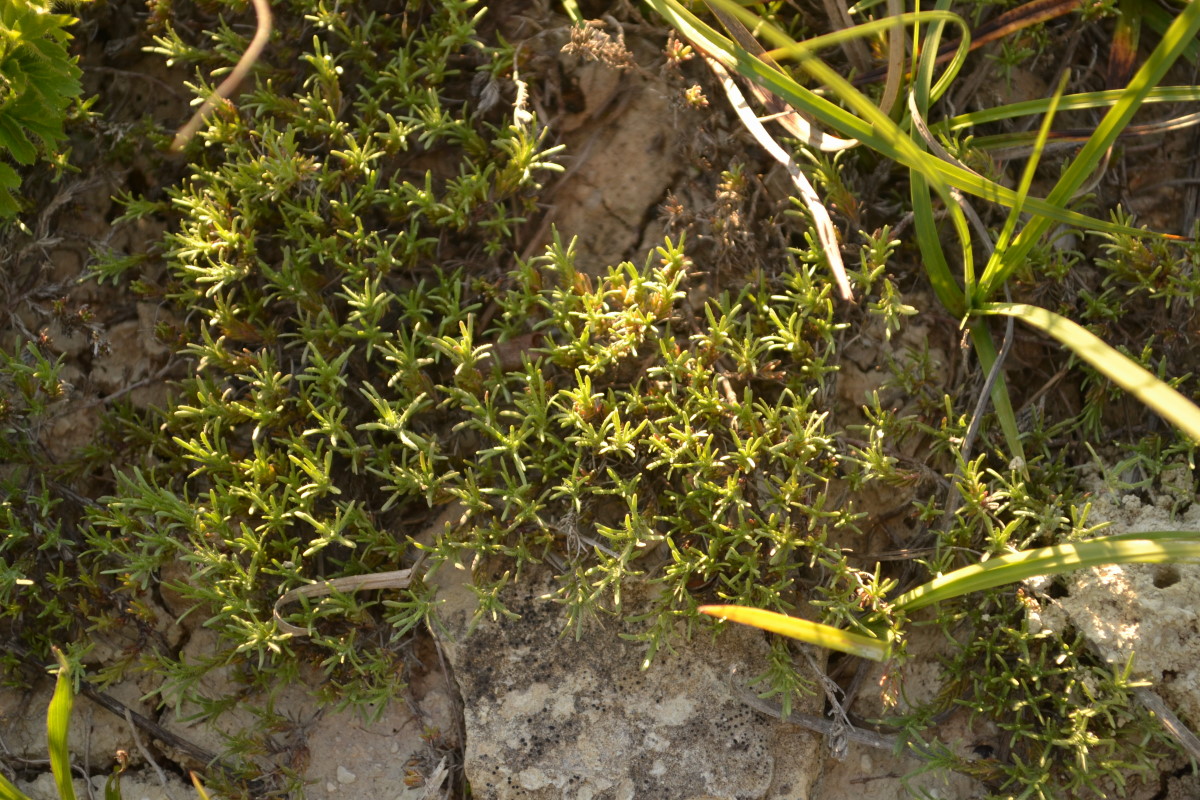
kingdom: Plantae
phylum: Tracheophyta
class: Magnoliopsida
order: Lamiales
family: Lamiaceae
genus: Thymus
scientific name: Thymus helendzhicus
